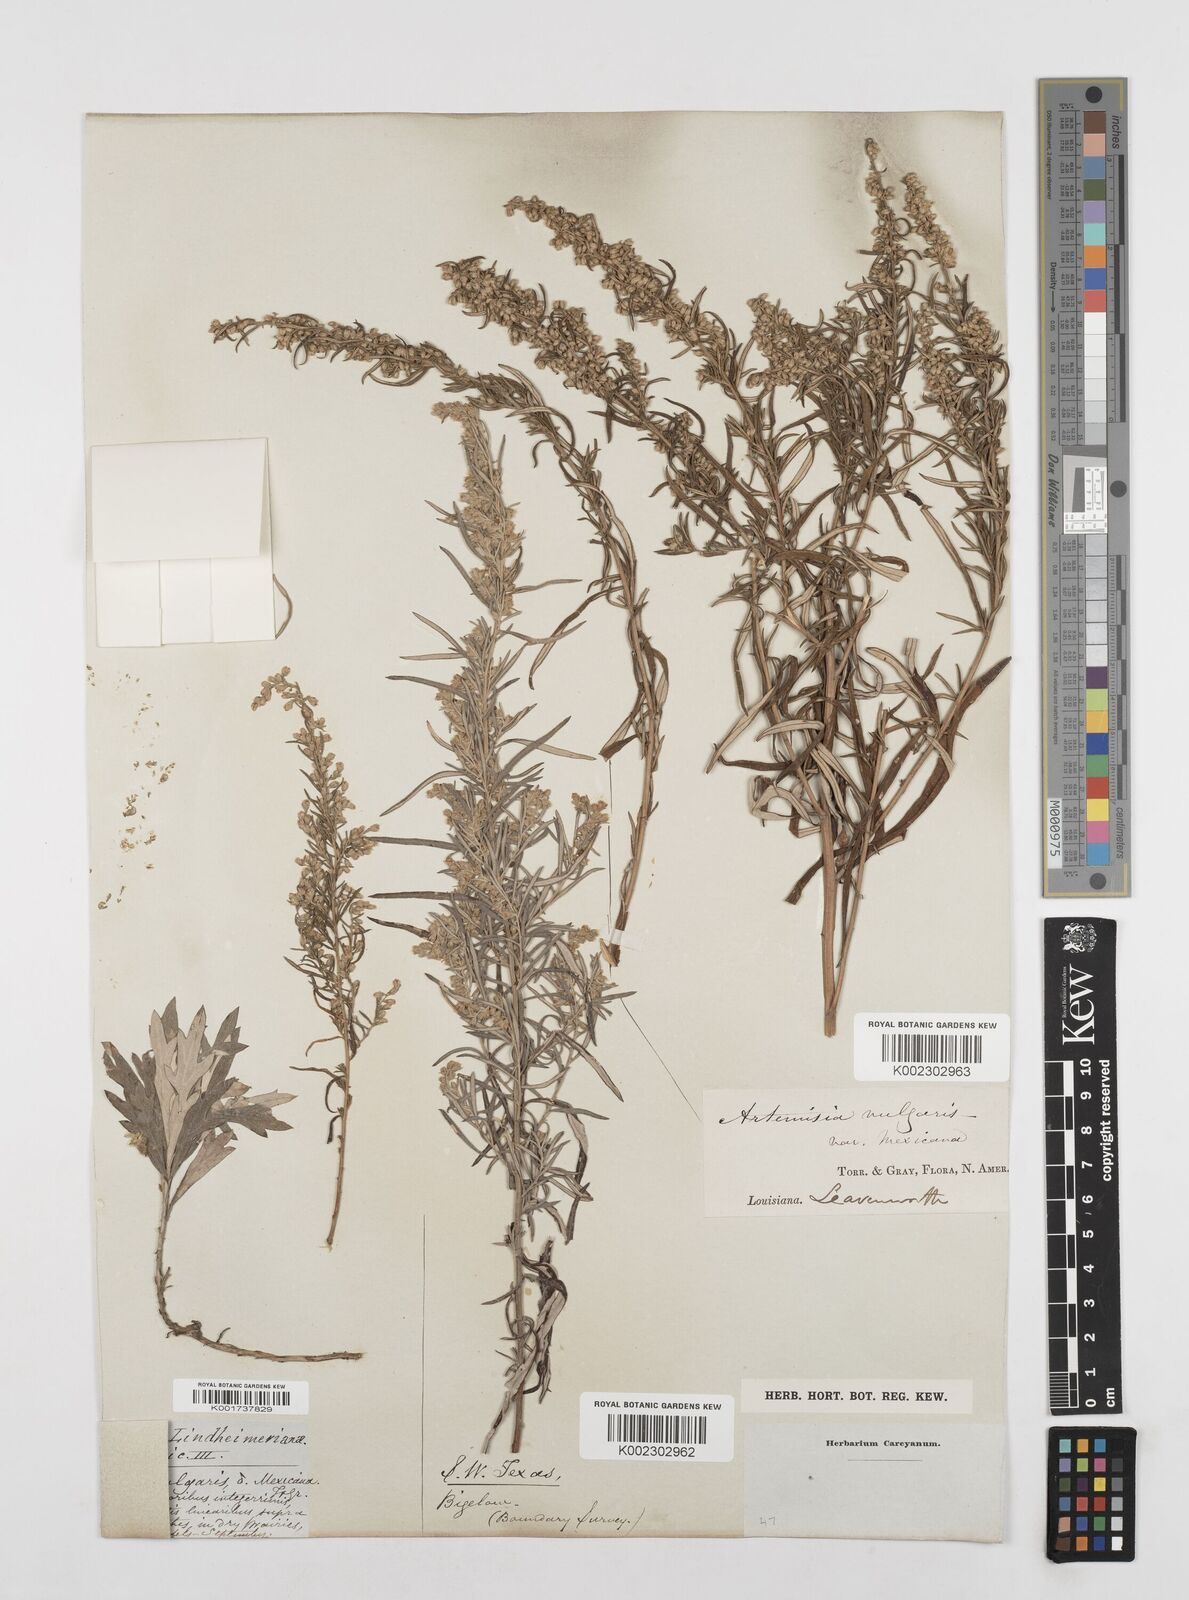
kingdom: Plantae
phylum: Tracheophyta
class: Magnoliopsida
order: Asterales
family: Asteraceae
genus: Artemisia
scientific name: Artemisia ludoviciana
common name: Western mugwort
